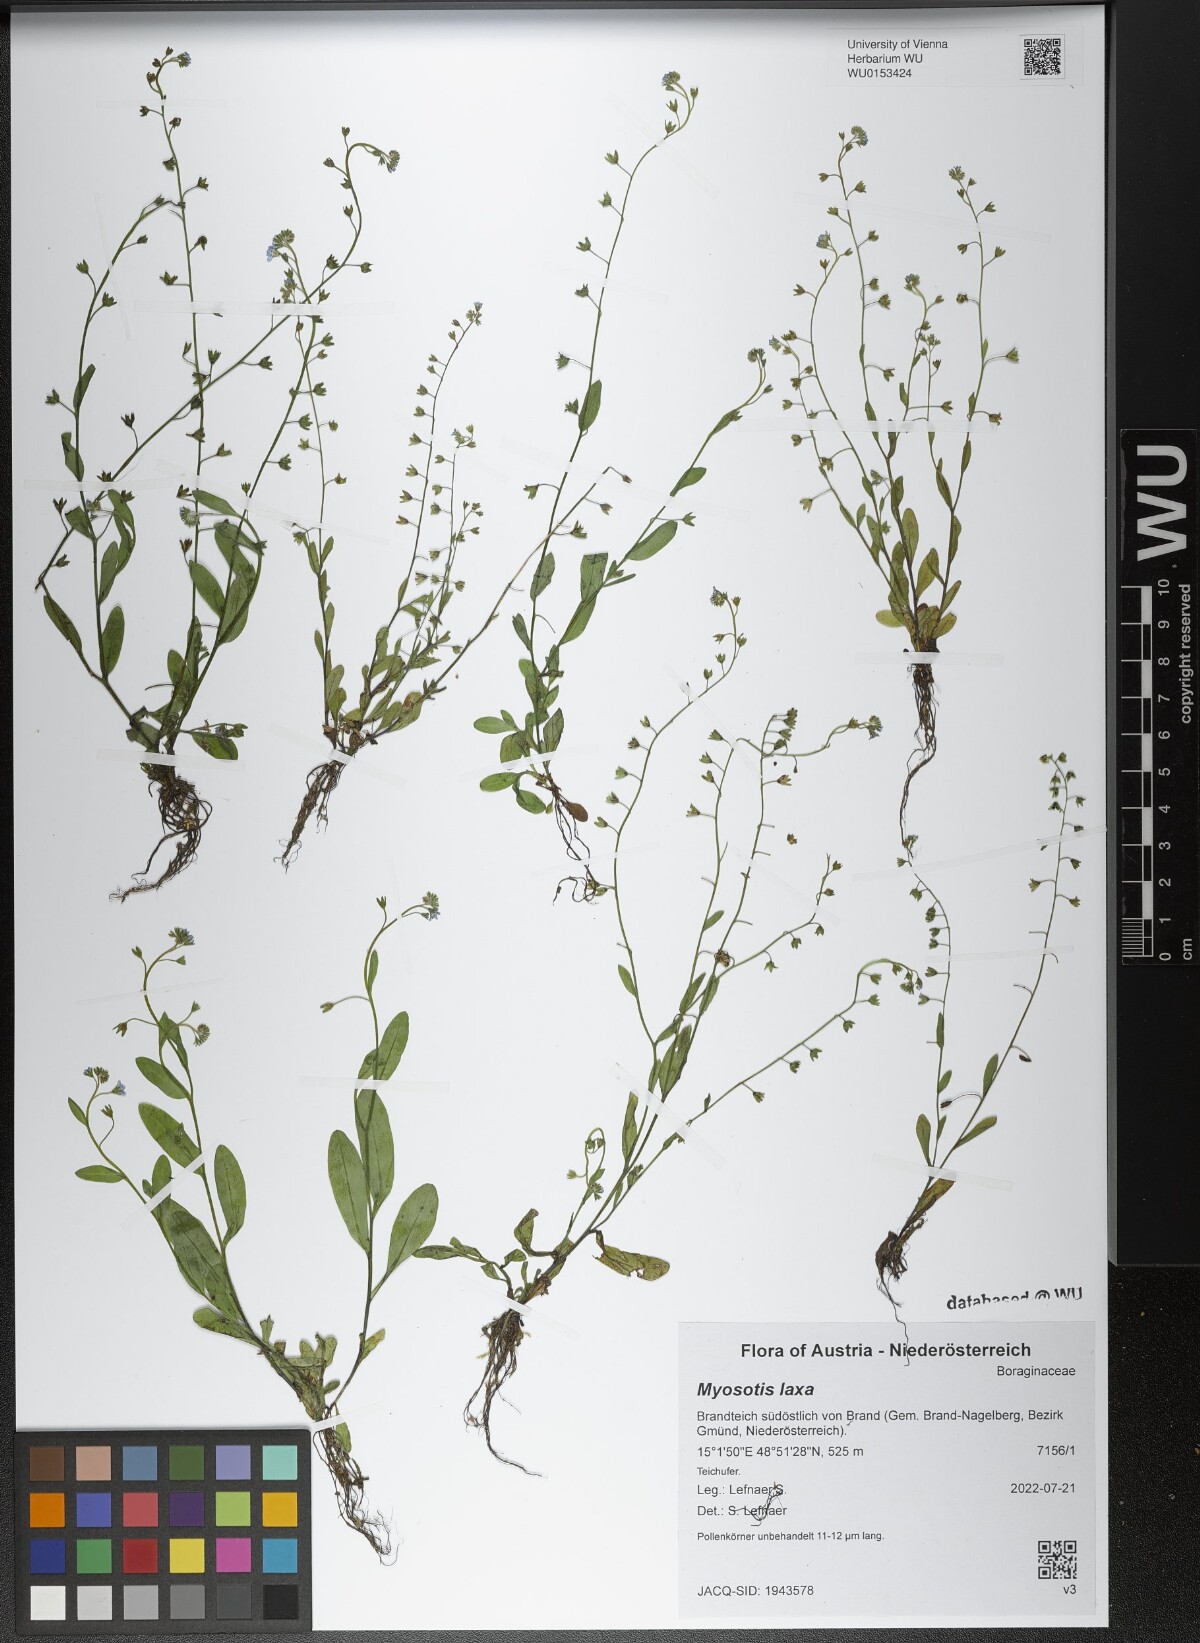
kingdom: Plantae
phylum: Tracheophyta
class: Magnoliopsida
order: Boraginales
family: Boraginaceae
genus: Myosotis
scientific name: Myosotis laxa
